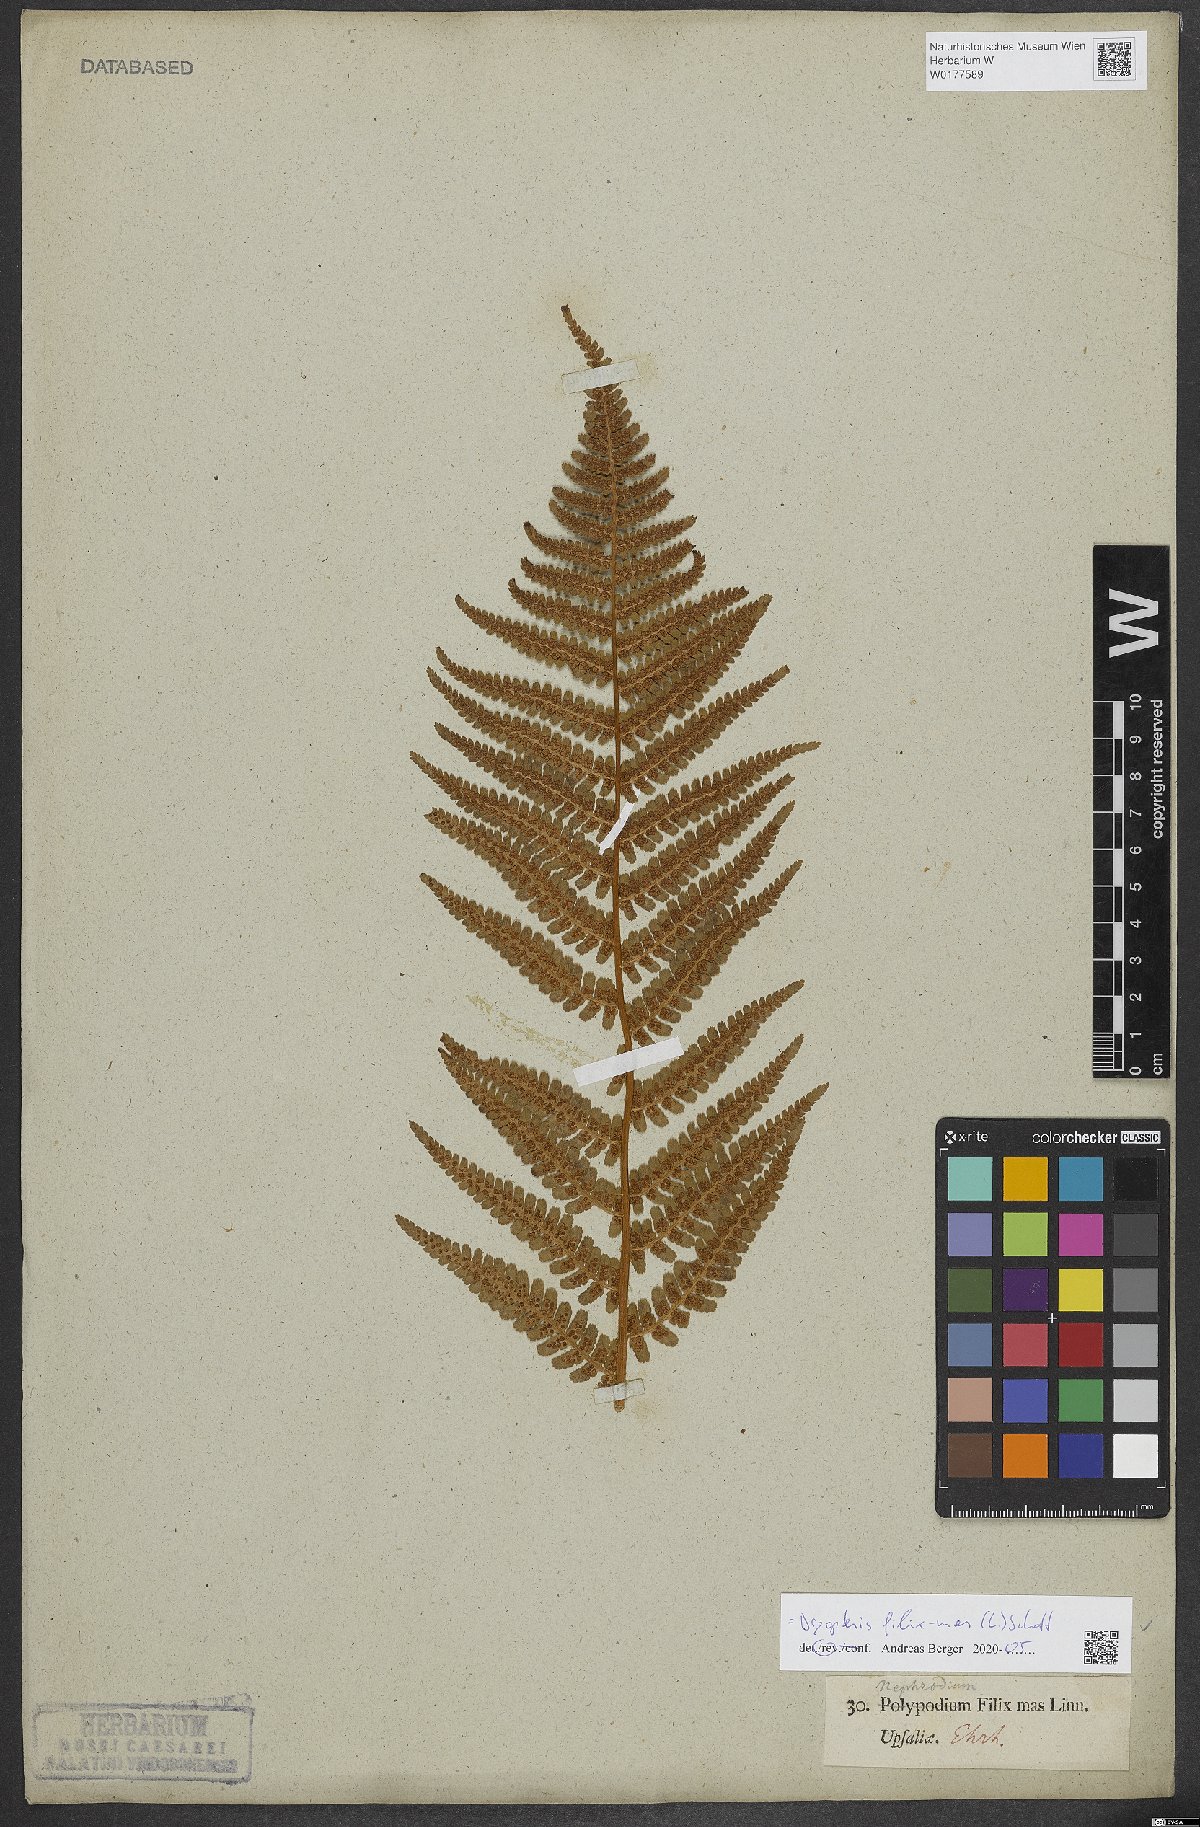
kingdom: Plantae
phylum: Tracheophyta
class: Polypodiopsida
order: Polypodiales
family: Dryopteridaceae
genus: Dryopteris
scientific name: Dryopteris filix-mas
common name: Male fern
